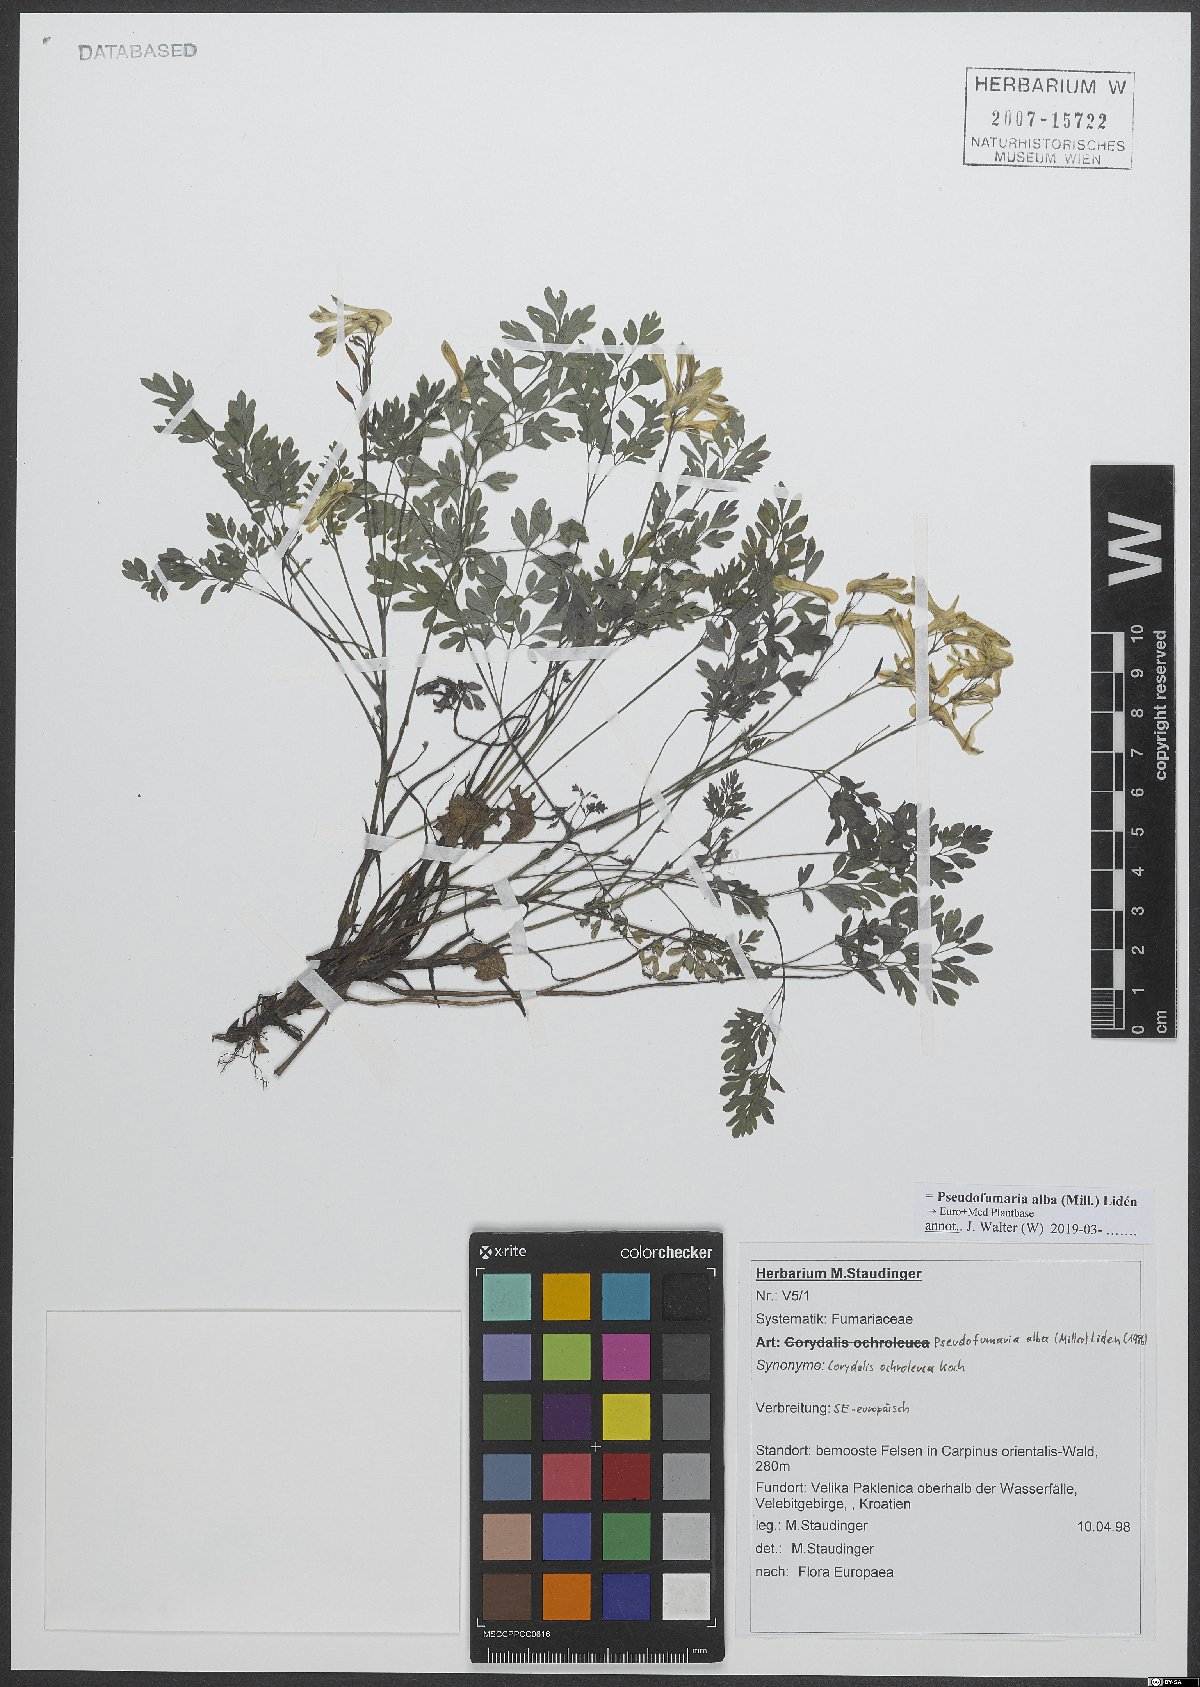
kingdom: Plantae
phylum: Tracheophyta
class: Magnoliopsida
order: Ranunculales
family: Papaveraceae
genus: Pseudofumaria
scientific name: Pseudofumaria alba
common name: Pale corydalis
